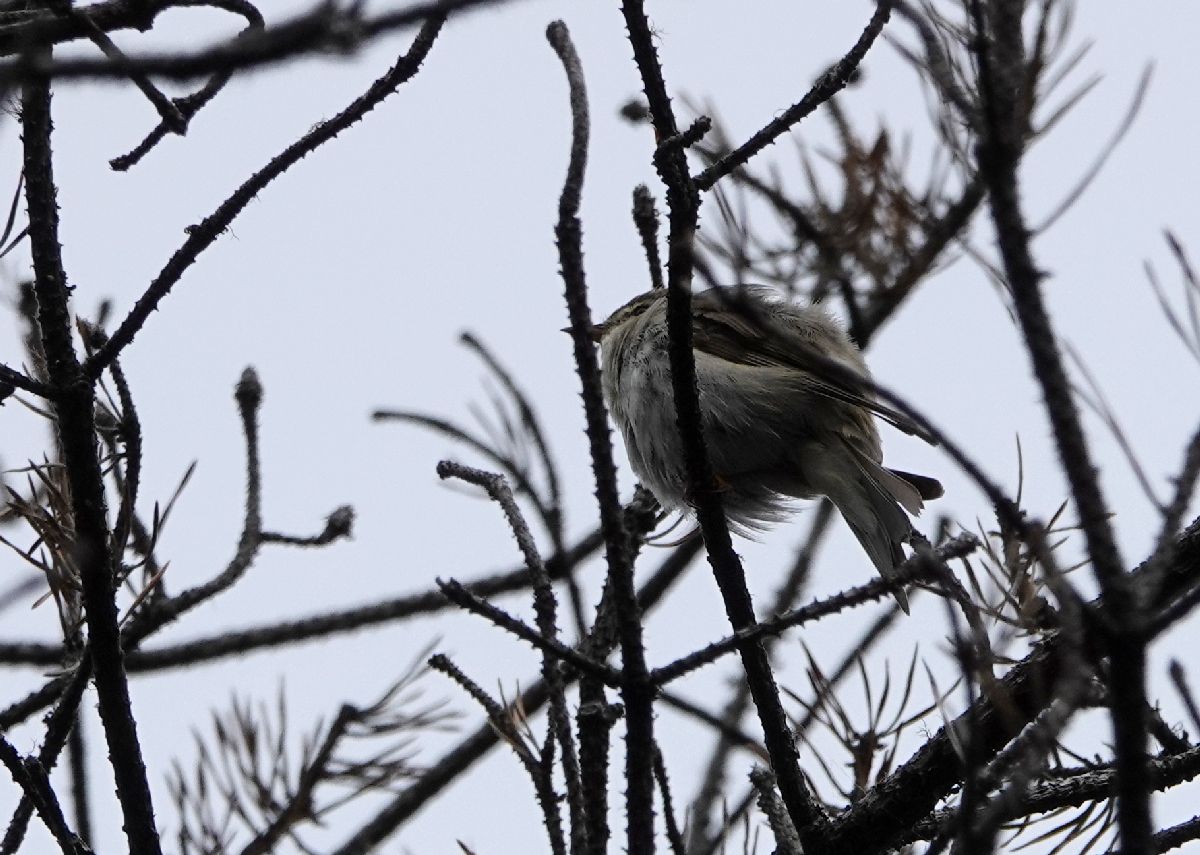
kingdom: Animalia
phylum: Chordata
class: Aves
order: Passeriformes
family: Phylloscopidae
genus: Phylloscopus
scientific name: Phylloscopus trochilus
